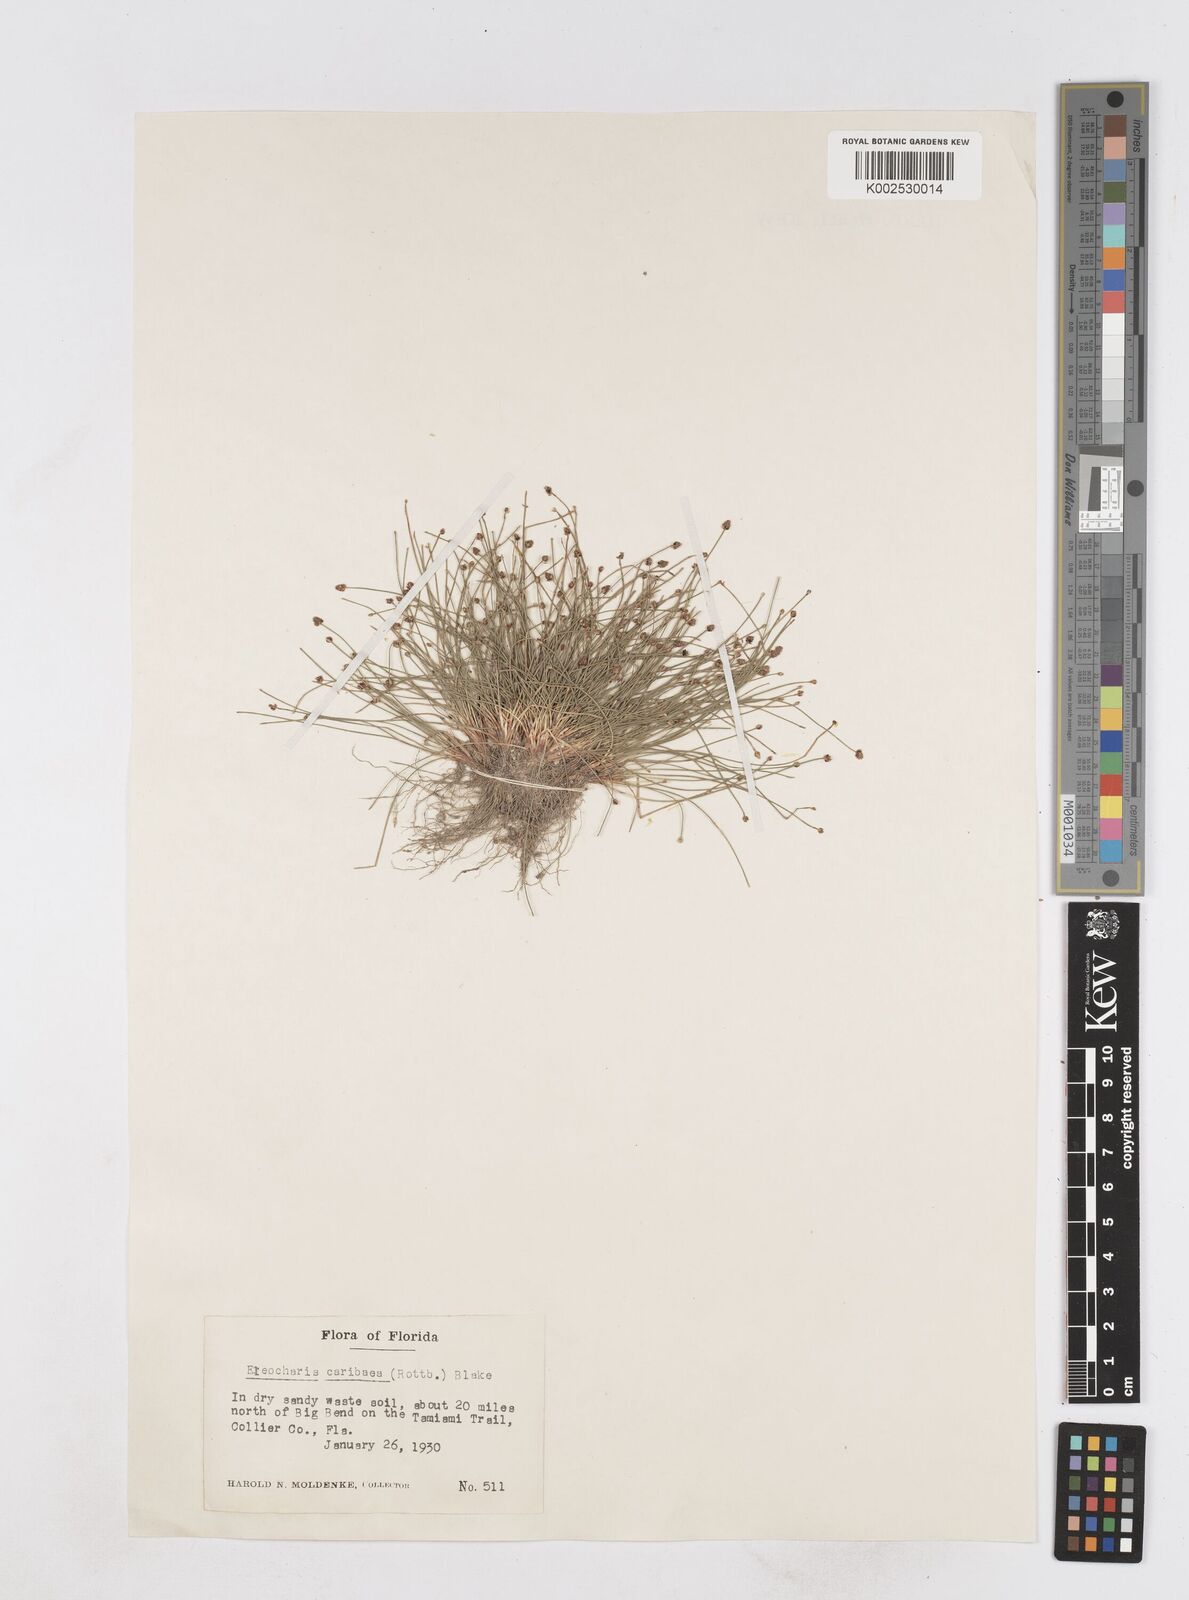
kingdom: Plantae
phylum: Tracheophyta
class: Liliopsida
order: Poales
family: Cyperaceae
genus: Eleocharis
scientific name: Eleocharis geniculata
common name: Canada spikesedge
